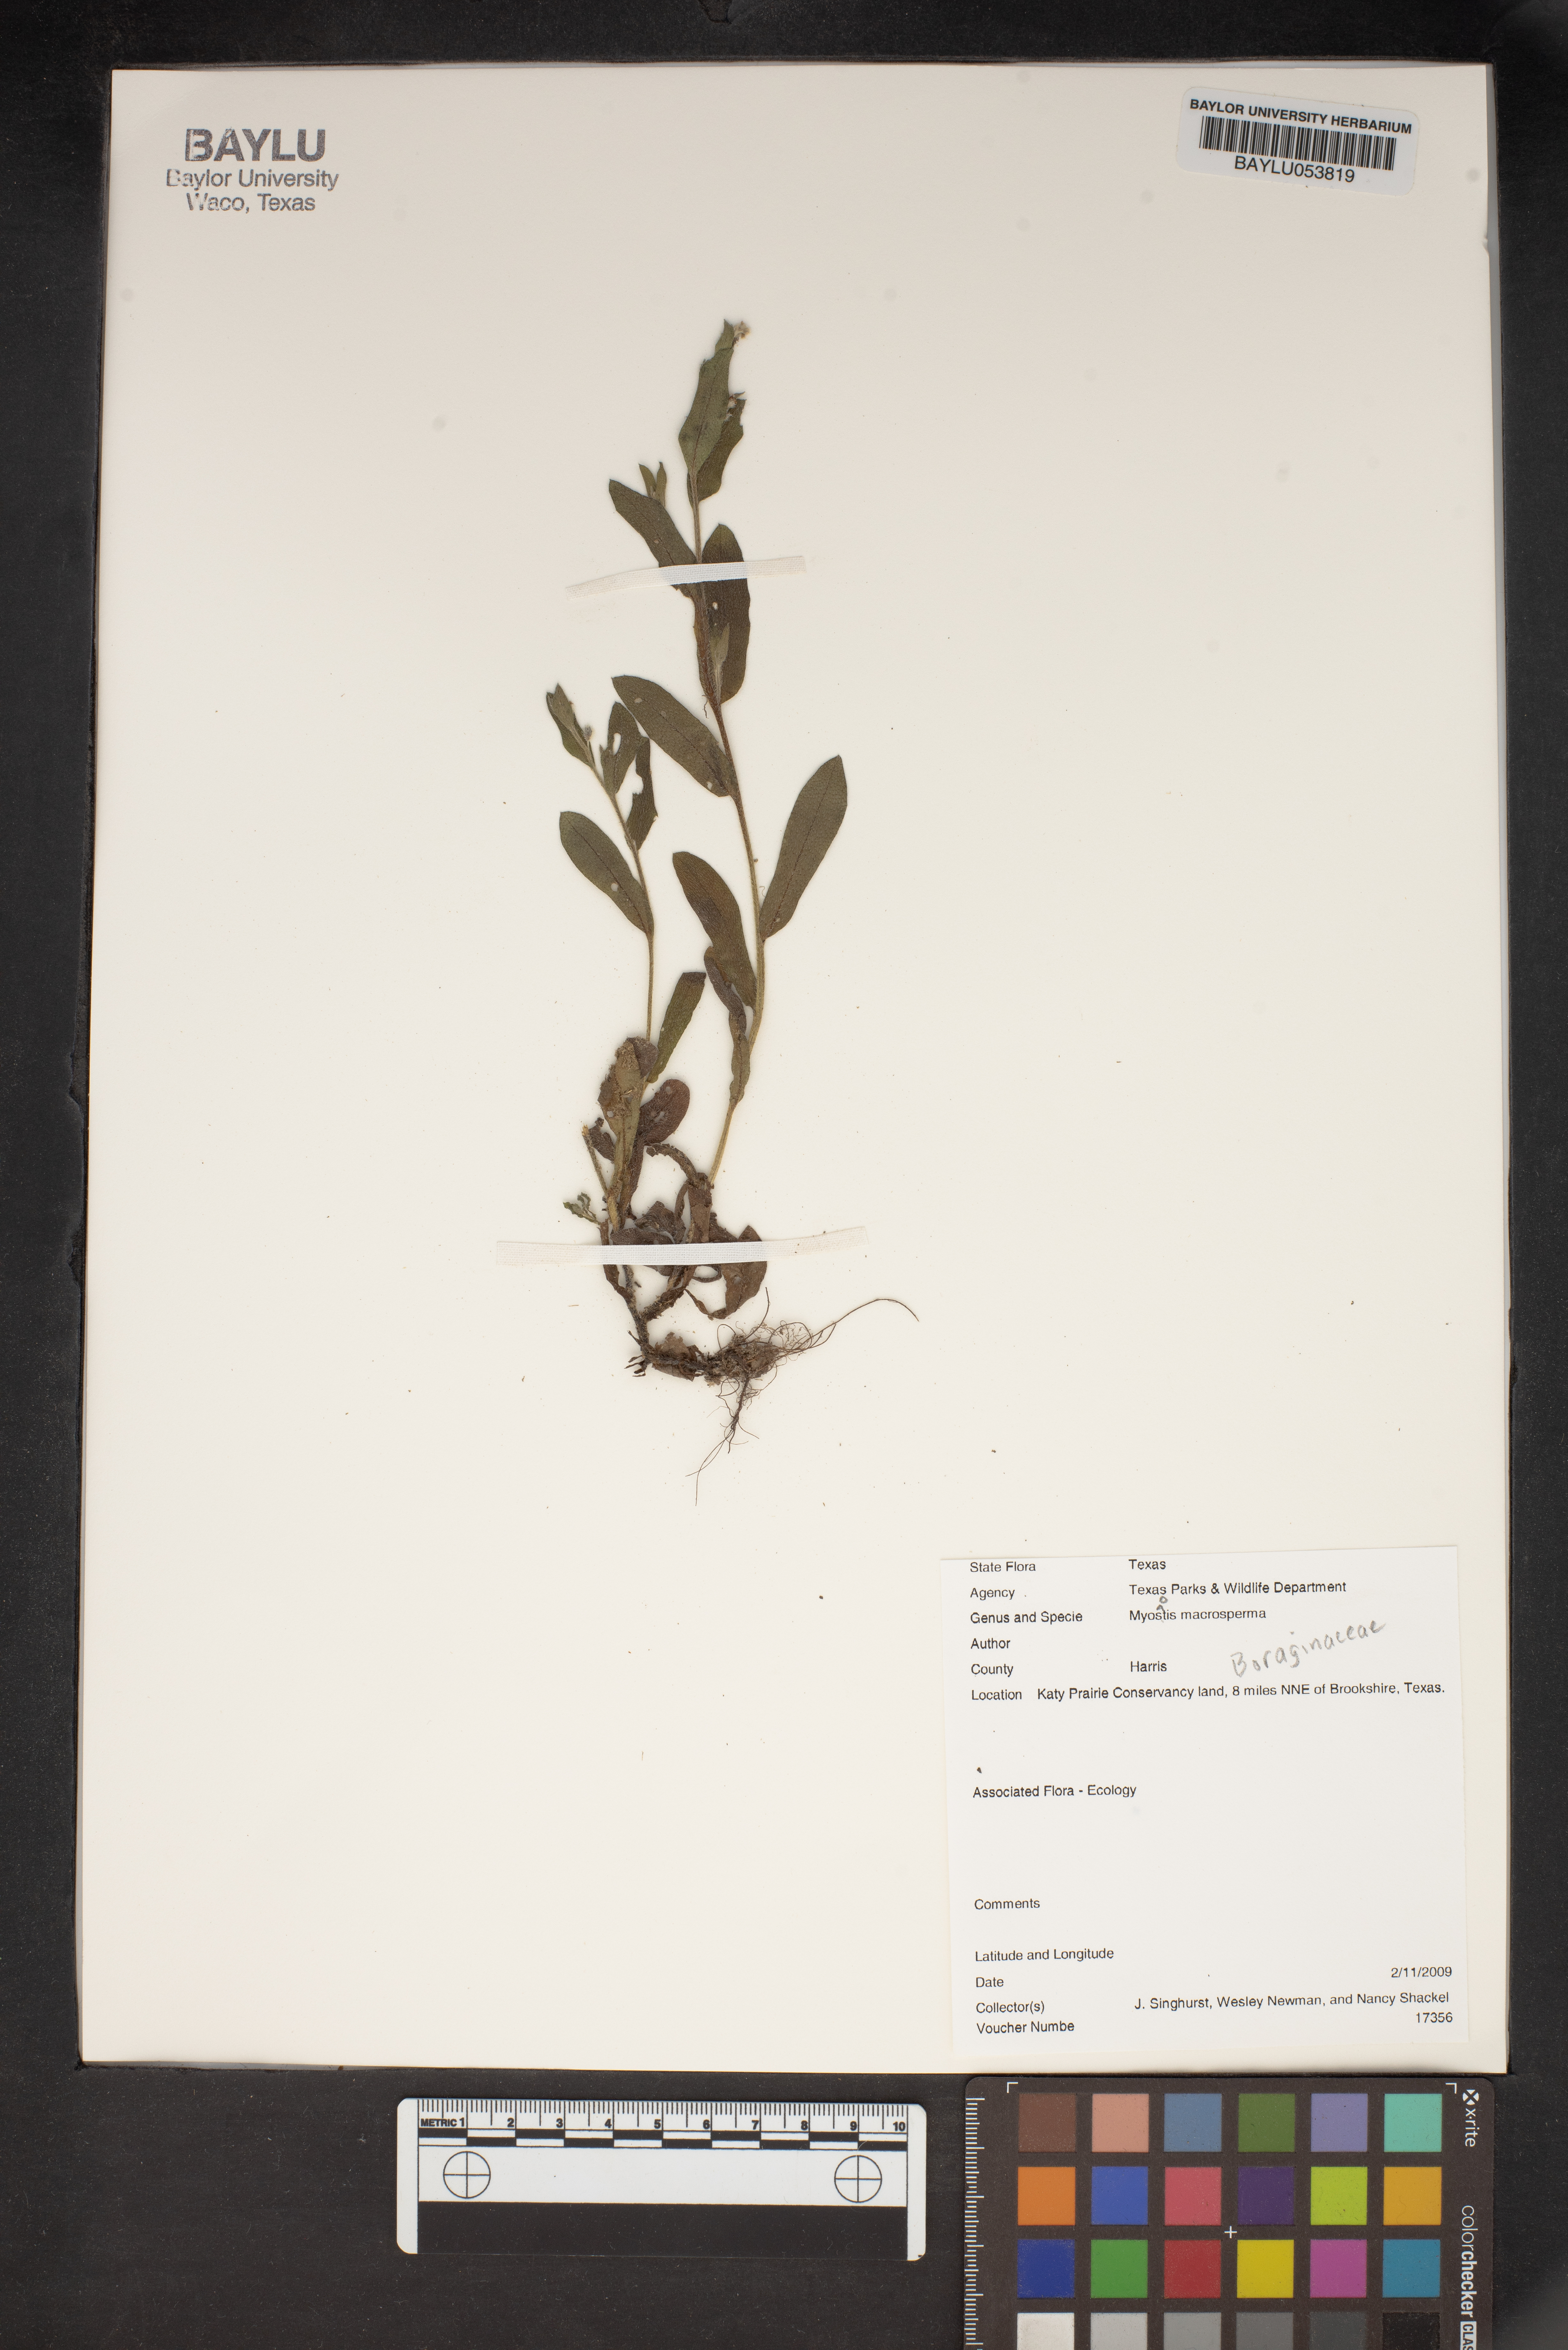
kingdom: Plantae
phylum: Tracheophyta
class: Magnoliopsida
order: Boraginales
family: Boraginaceae
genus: Myosotis
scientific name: Myosotis macrosperma
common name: Large-seed forget-me-not
